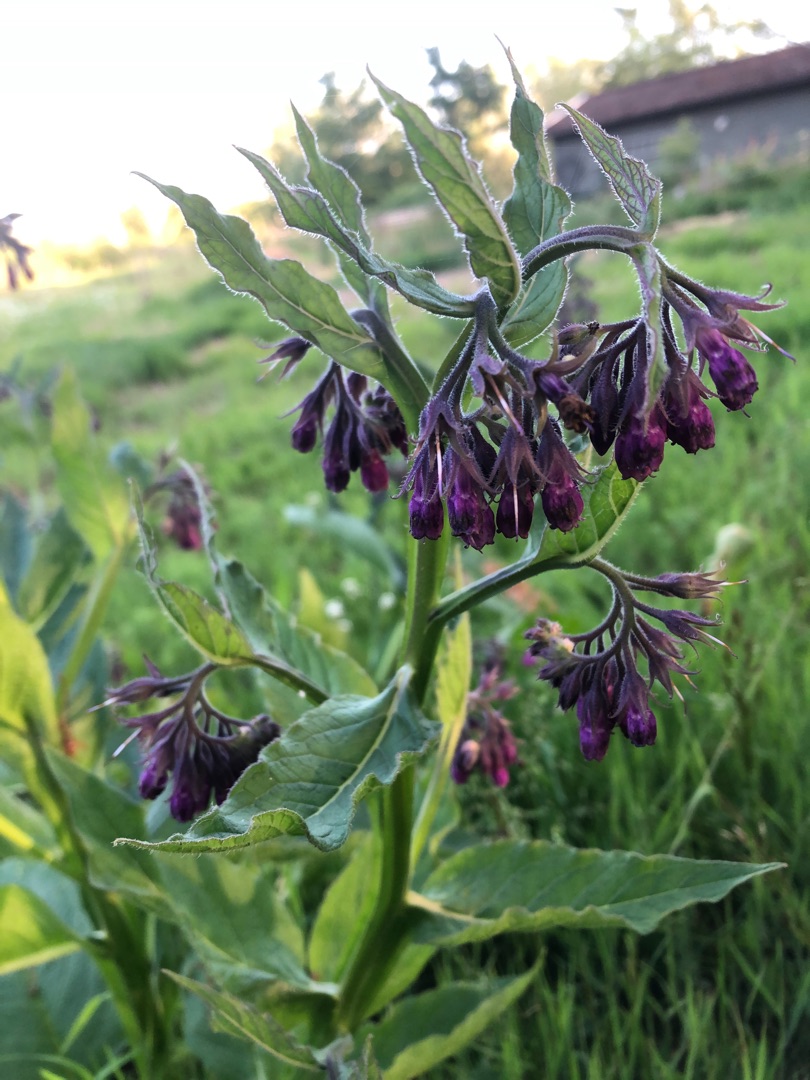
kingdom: Plantae
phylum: Tracheophyta
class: Magnoliopsida
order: Boraginales
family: Boraginaceae
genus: Symphytum
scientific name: Symphytum uplandicum
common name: Foder-kulsukker
